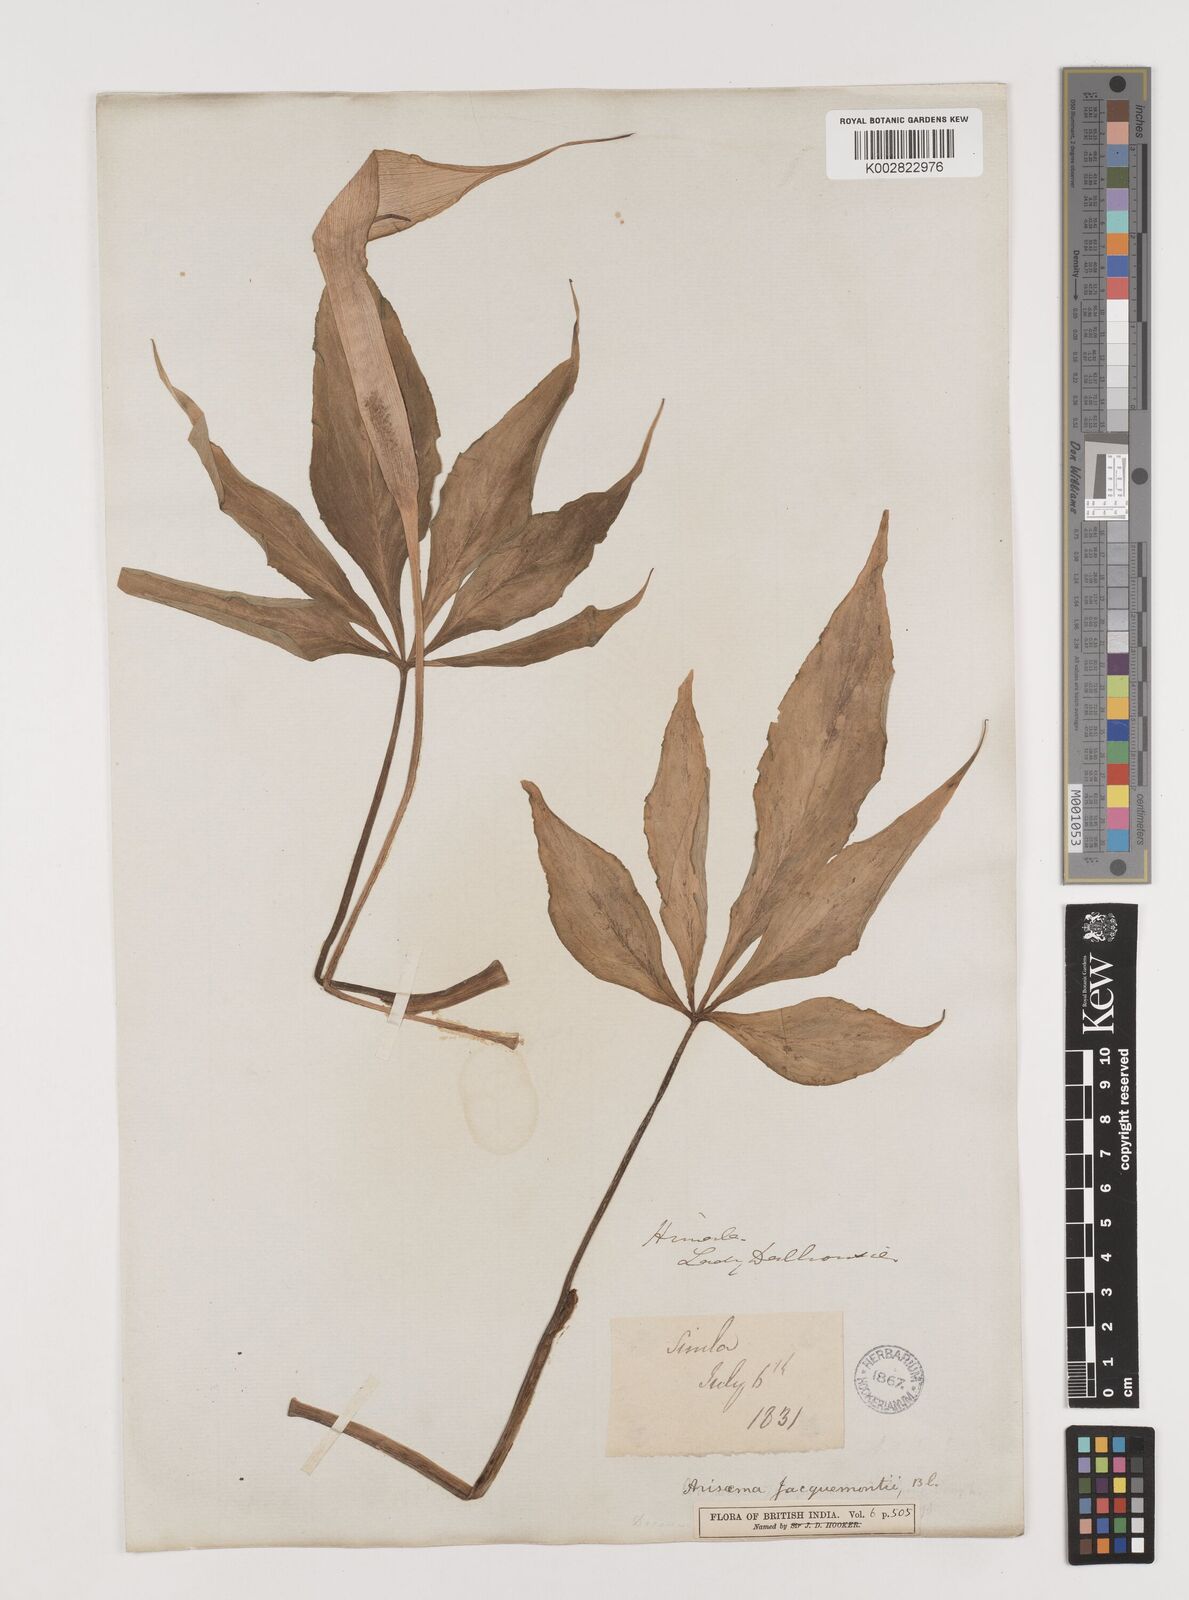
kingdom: Plantae
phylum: Tracheophyta
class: Liliopsida
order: Alismatales
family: Araceae
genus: Arisaema
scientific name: Arisaema jacquemontii
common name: Jacquemont's cobra-lily
